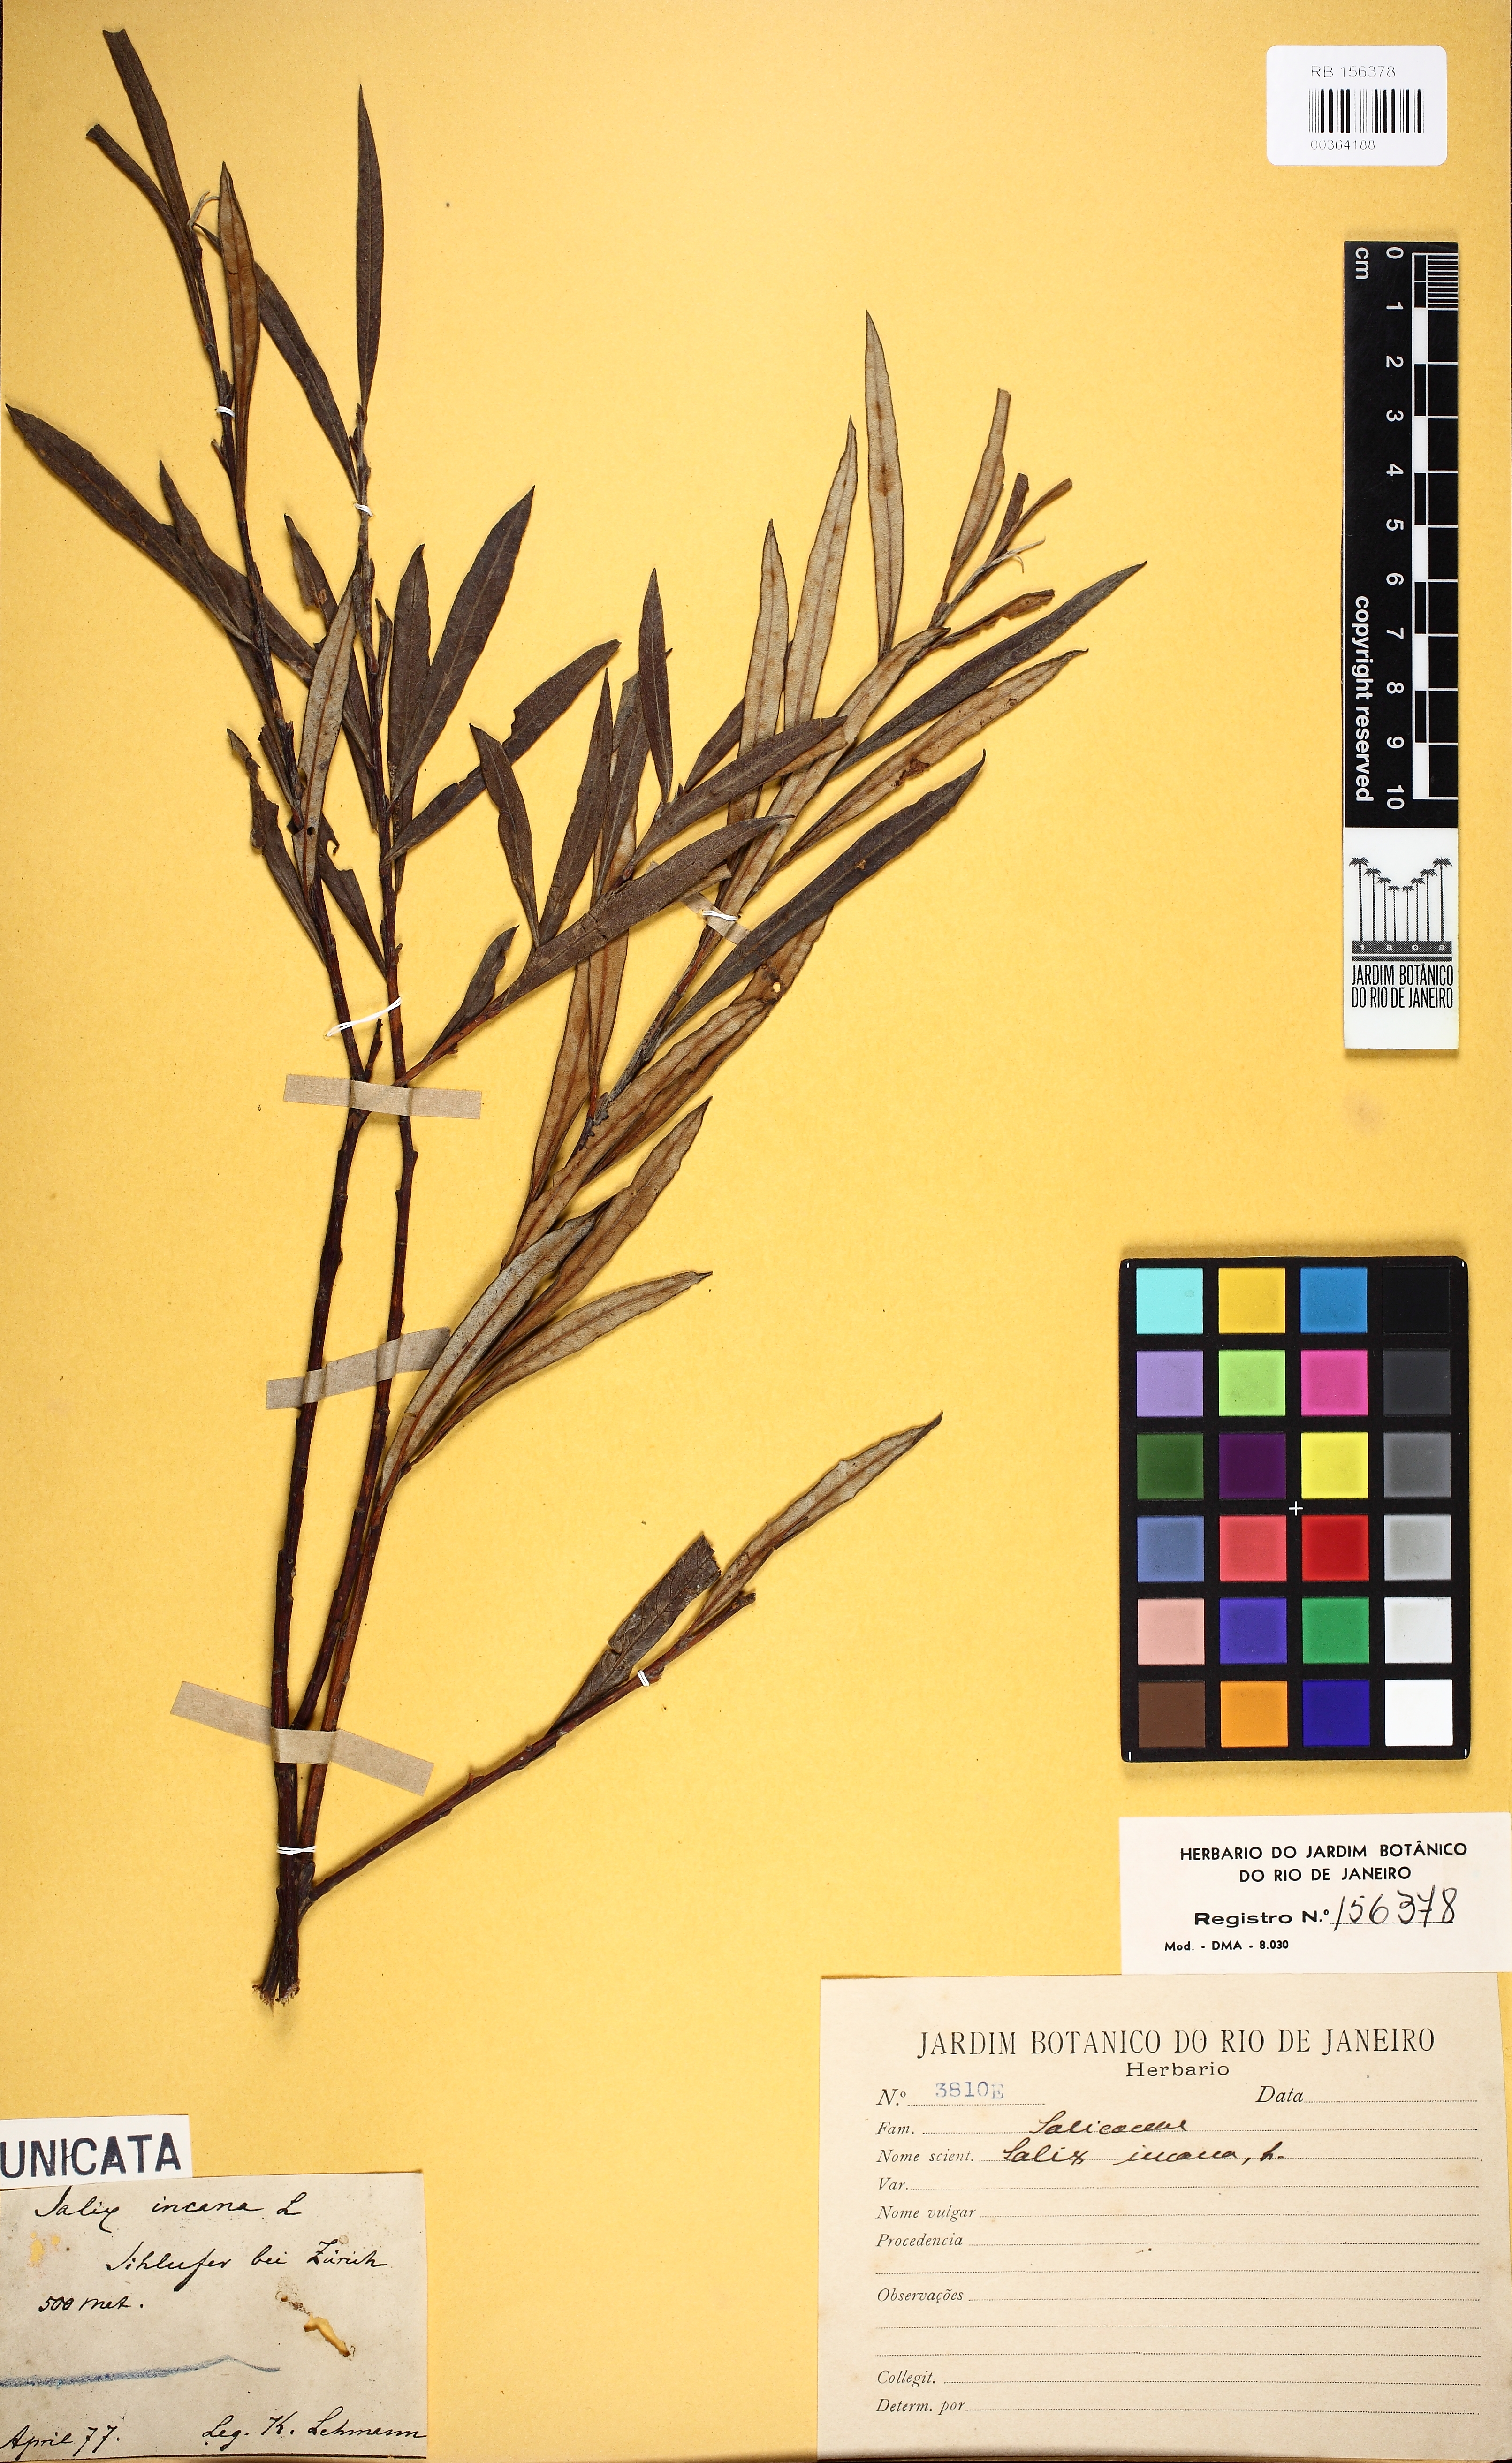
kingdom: Plantae
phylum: Tracheophyta
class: Magnoliopsida
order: Malpighiales
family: Salicaceae
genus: Salix
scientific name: Salix candida
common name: Hoary willow
